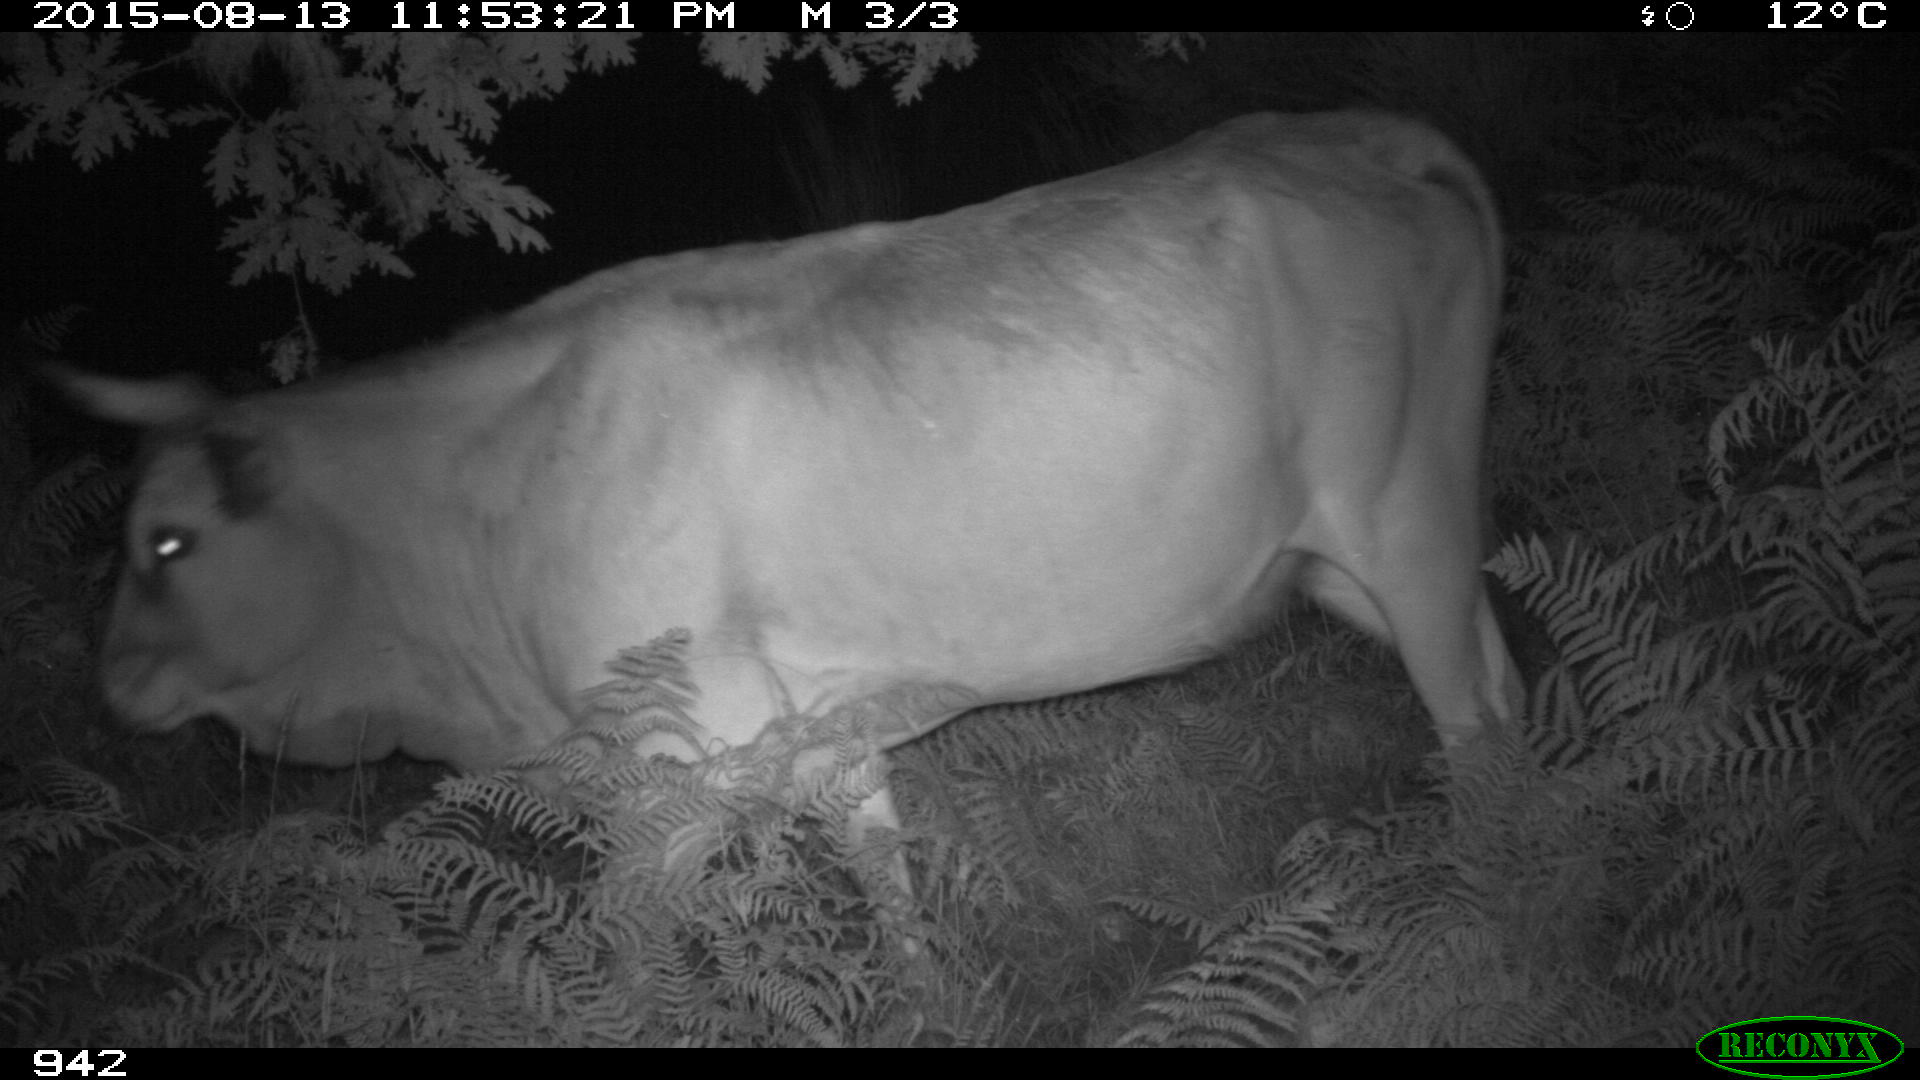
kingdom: Animalia
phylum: Chordata
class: Mammalia
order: Artiodactyla
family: Bovidae
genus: Bos
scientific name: Bos taurus
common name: Domesticated cattle
